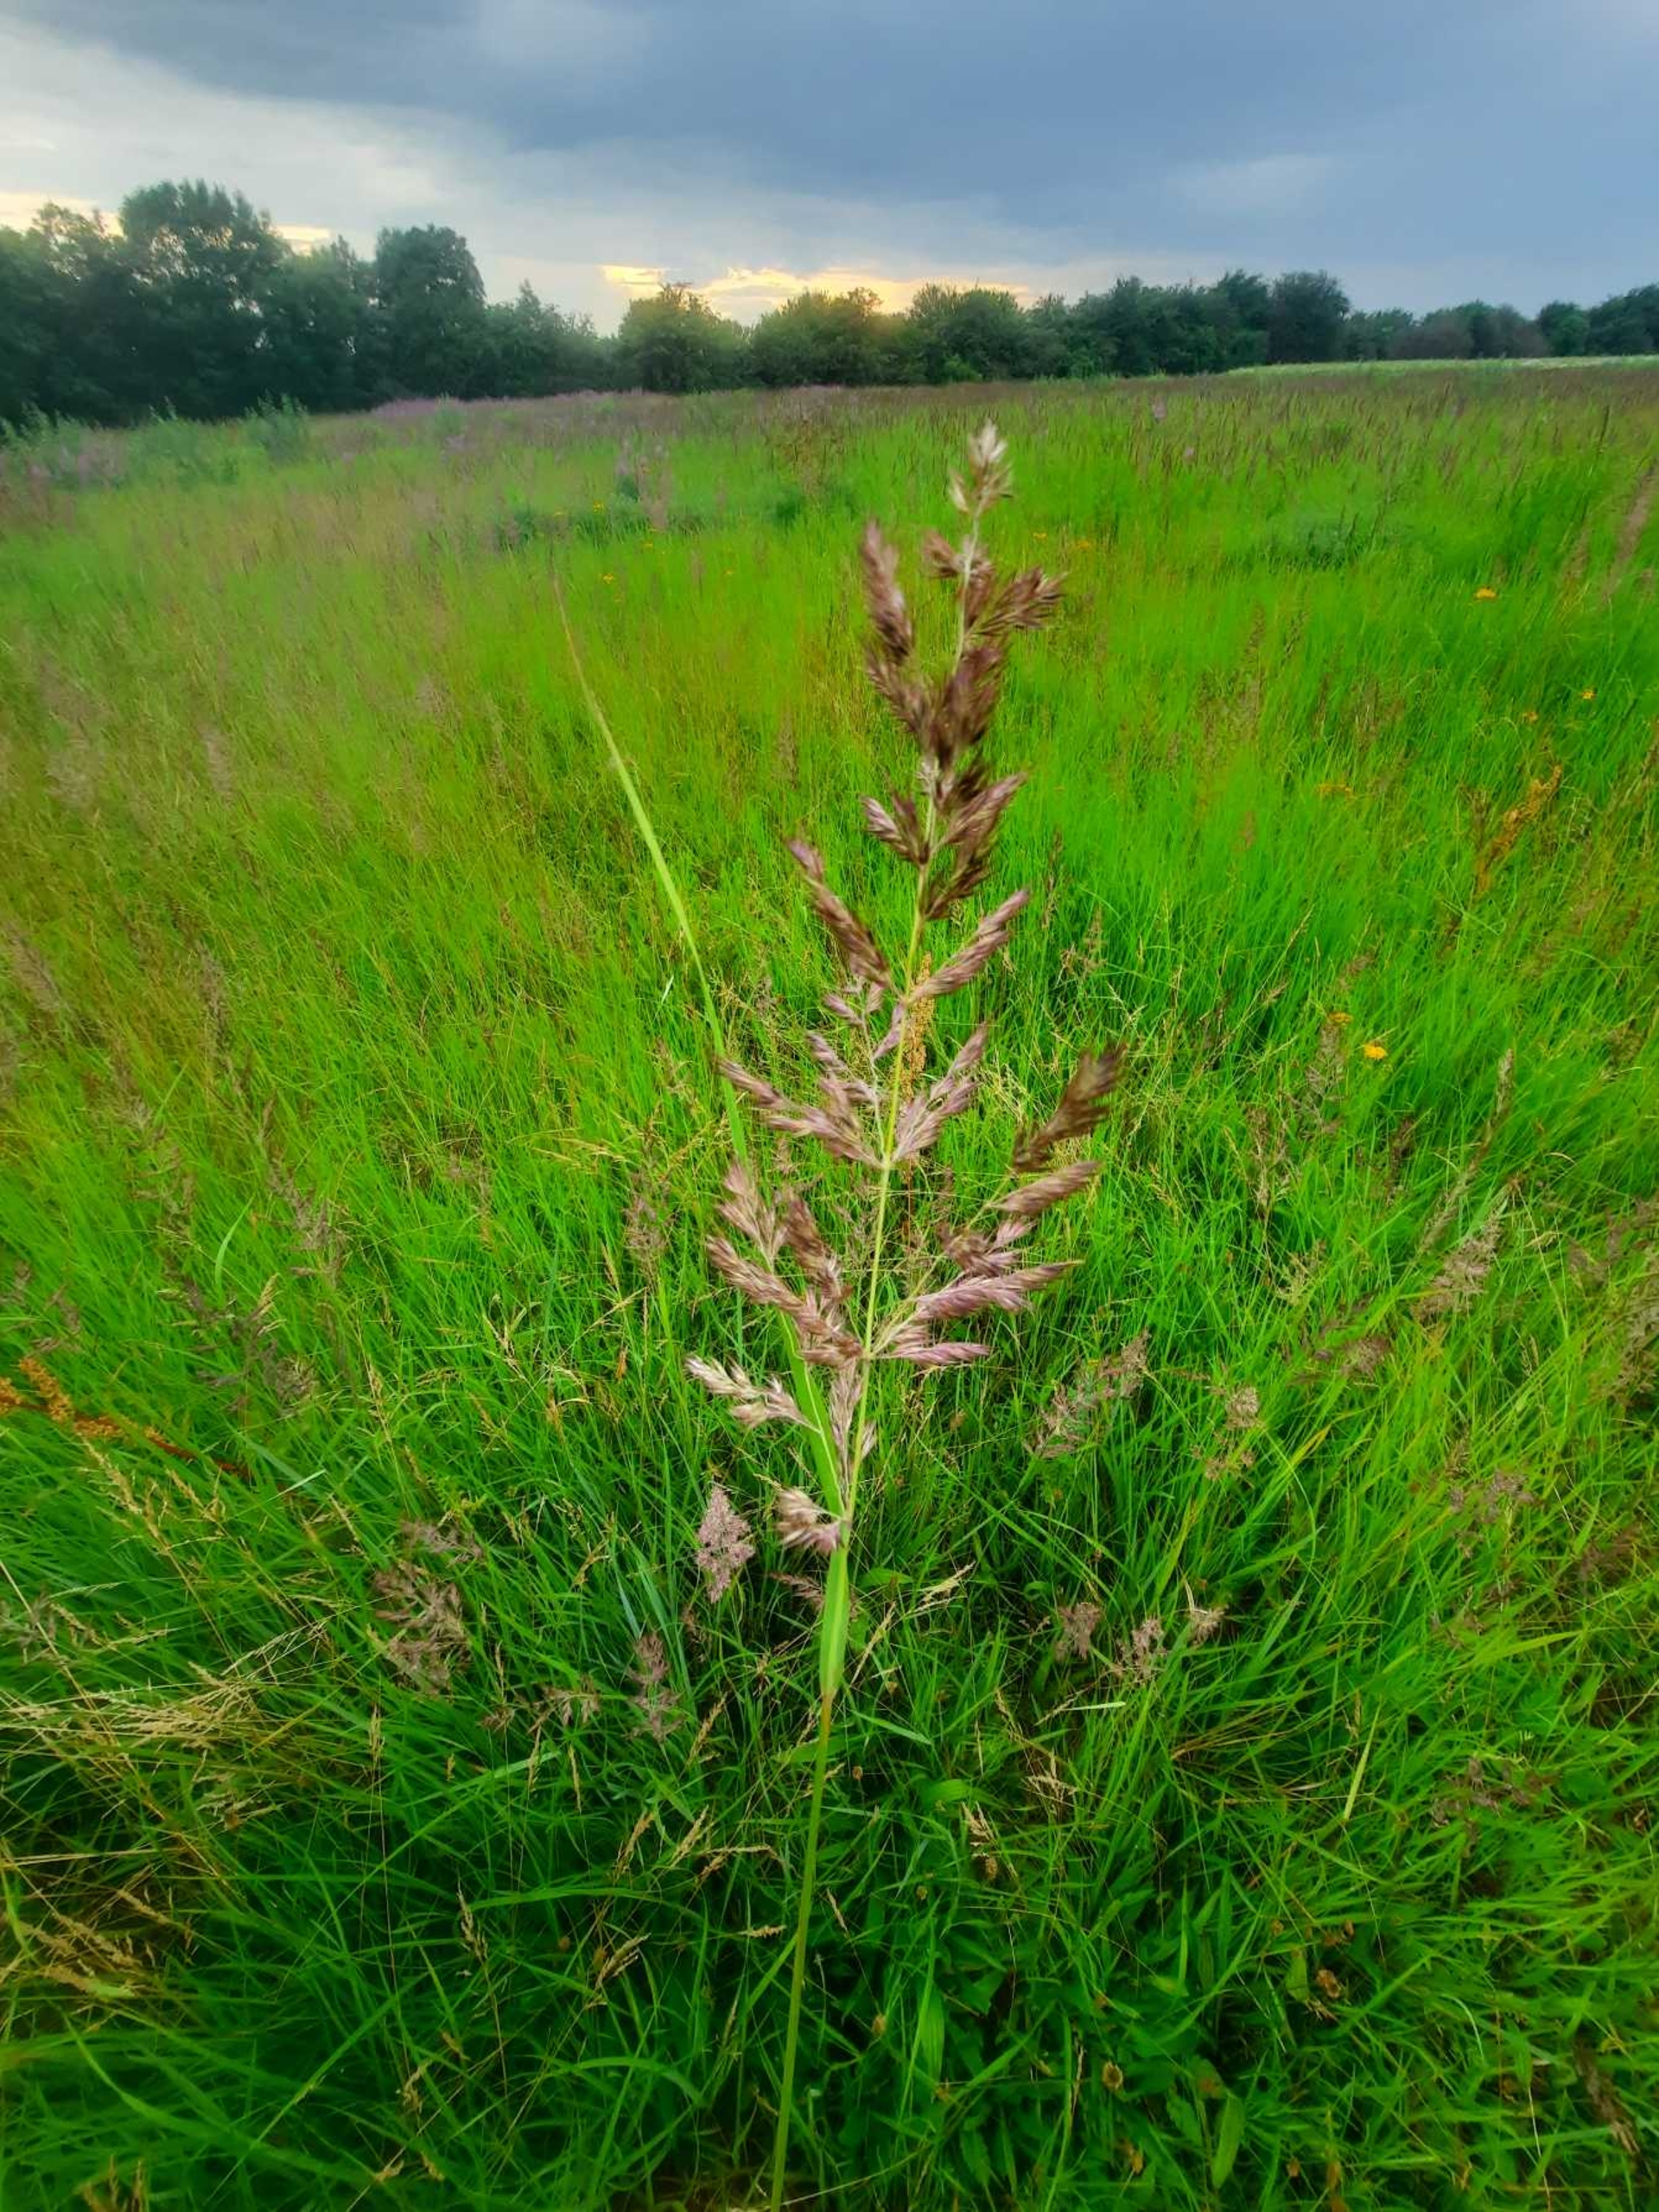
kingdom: Plantae
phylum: Tracheophyta
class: Liliopsida
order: Poales
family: Poaceae
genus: Calamagrostis
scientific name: Calamagrostis epigejos
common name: Bjerg-rørhvene
